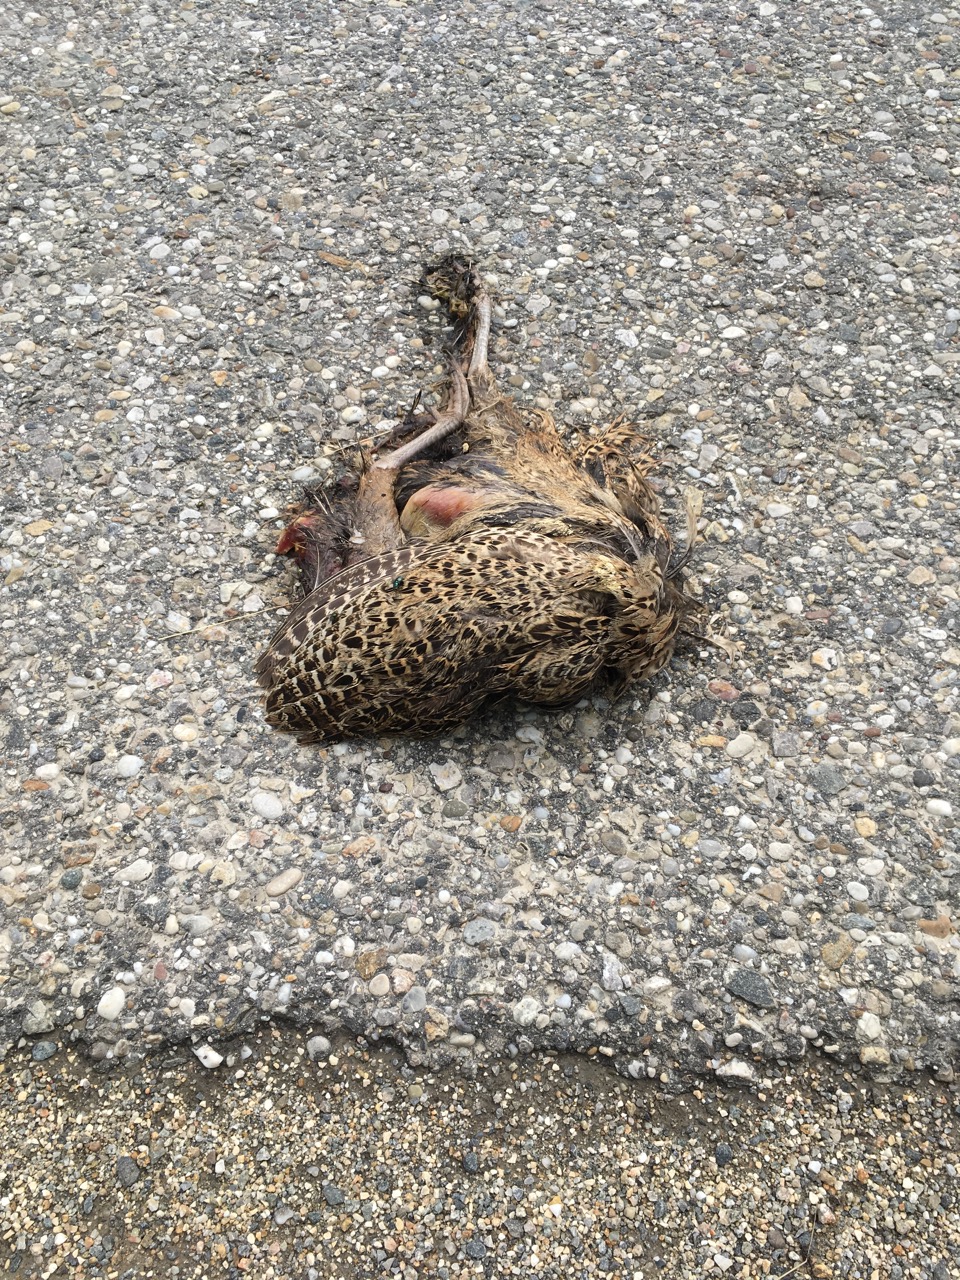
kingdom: Animalia
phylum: Chordata
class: Aves
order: Galliformes
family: Phasianidae
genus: Phasianus
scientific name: Phasianus colchicus
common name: Common pheasant
